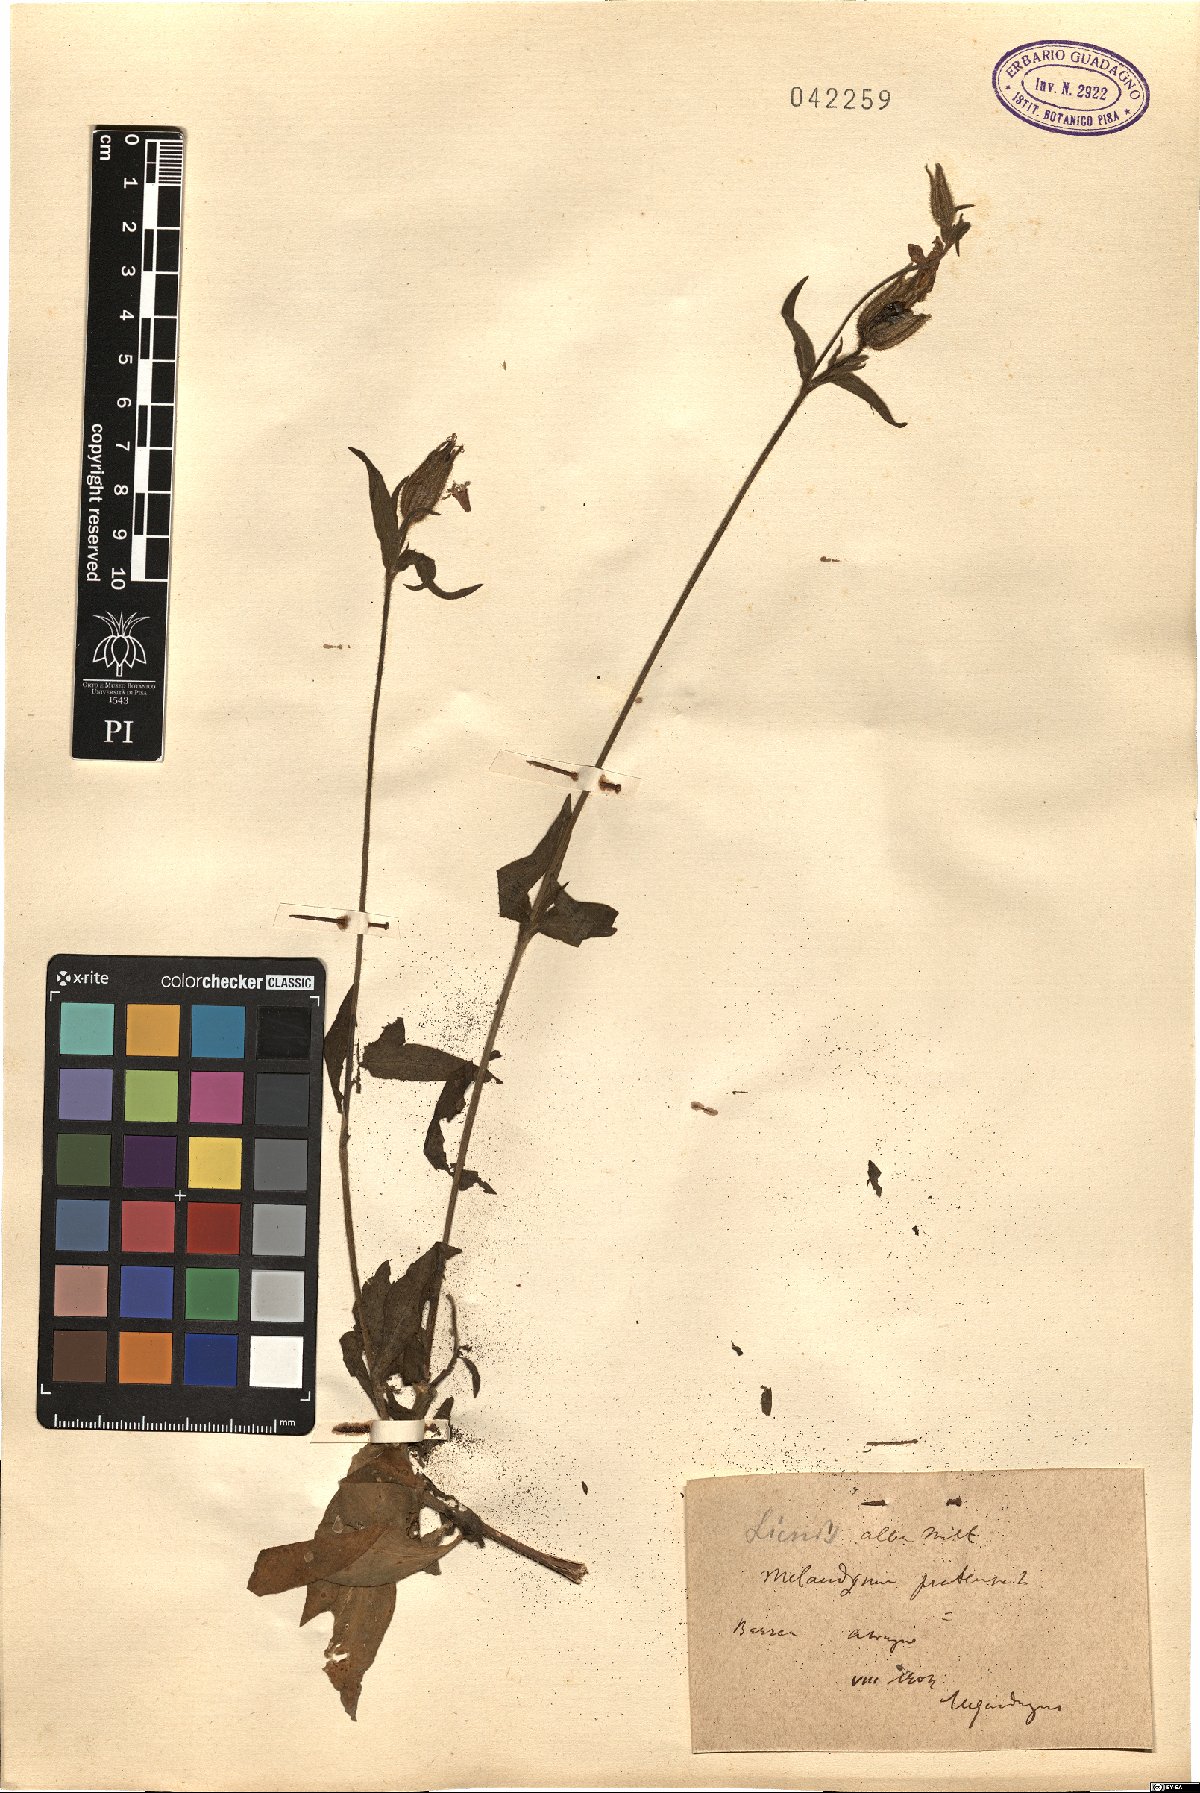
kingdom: Plantae
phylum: Tracheophyta
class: Magnoliopsida
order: Caryophyllales
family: Caryophyllaceae
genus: Silene
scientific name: Silene latifolia
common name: White campion
